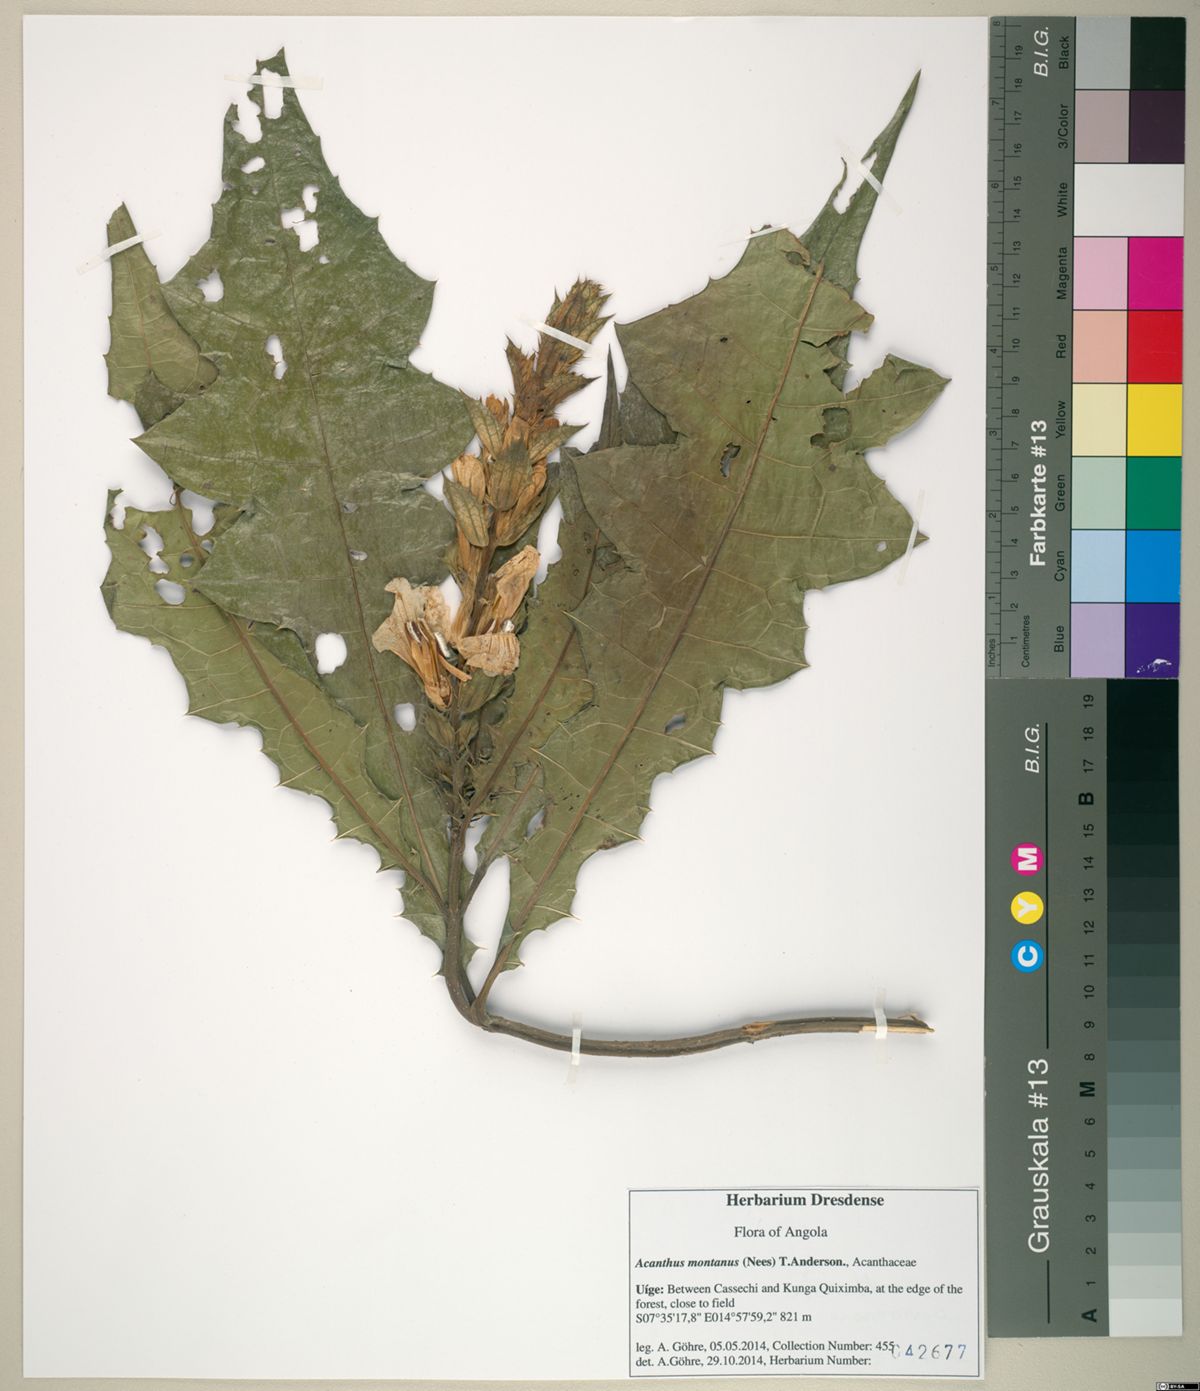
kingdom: Plantae
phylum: Tracheophyta
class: Magnoliopsida
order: Lamiales
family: Acanthaceae
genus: Acanthus
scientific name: Acanthus montanus
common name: Mountain thistle
